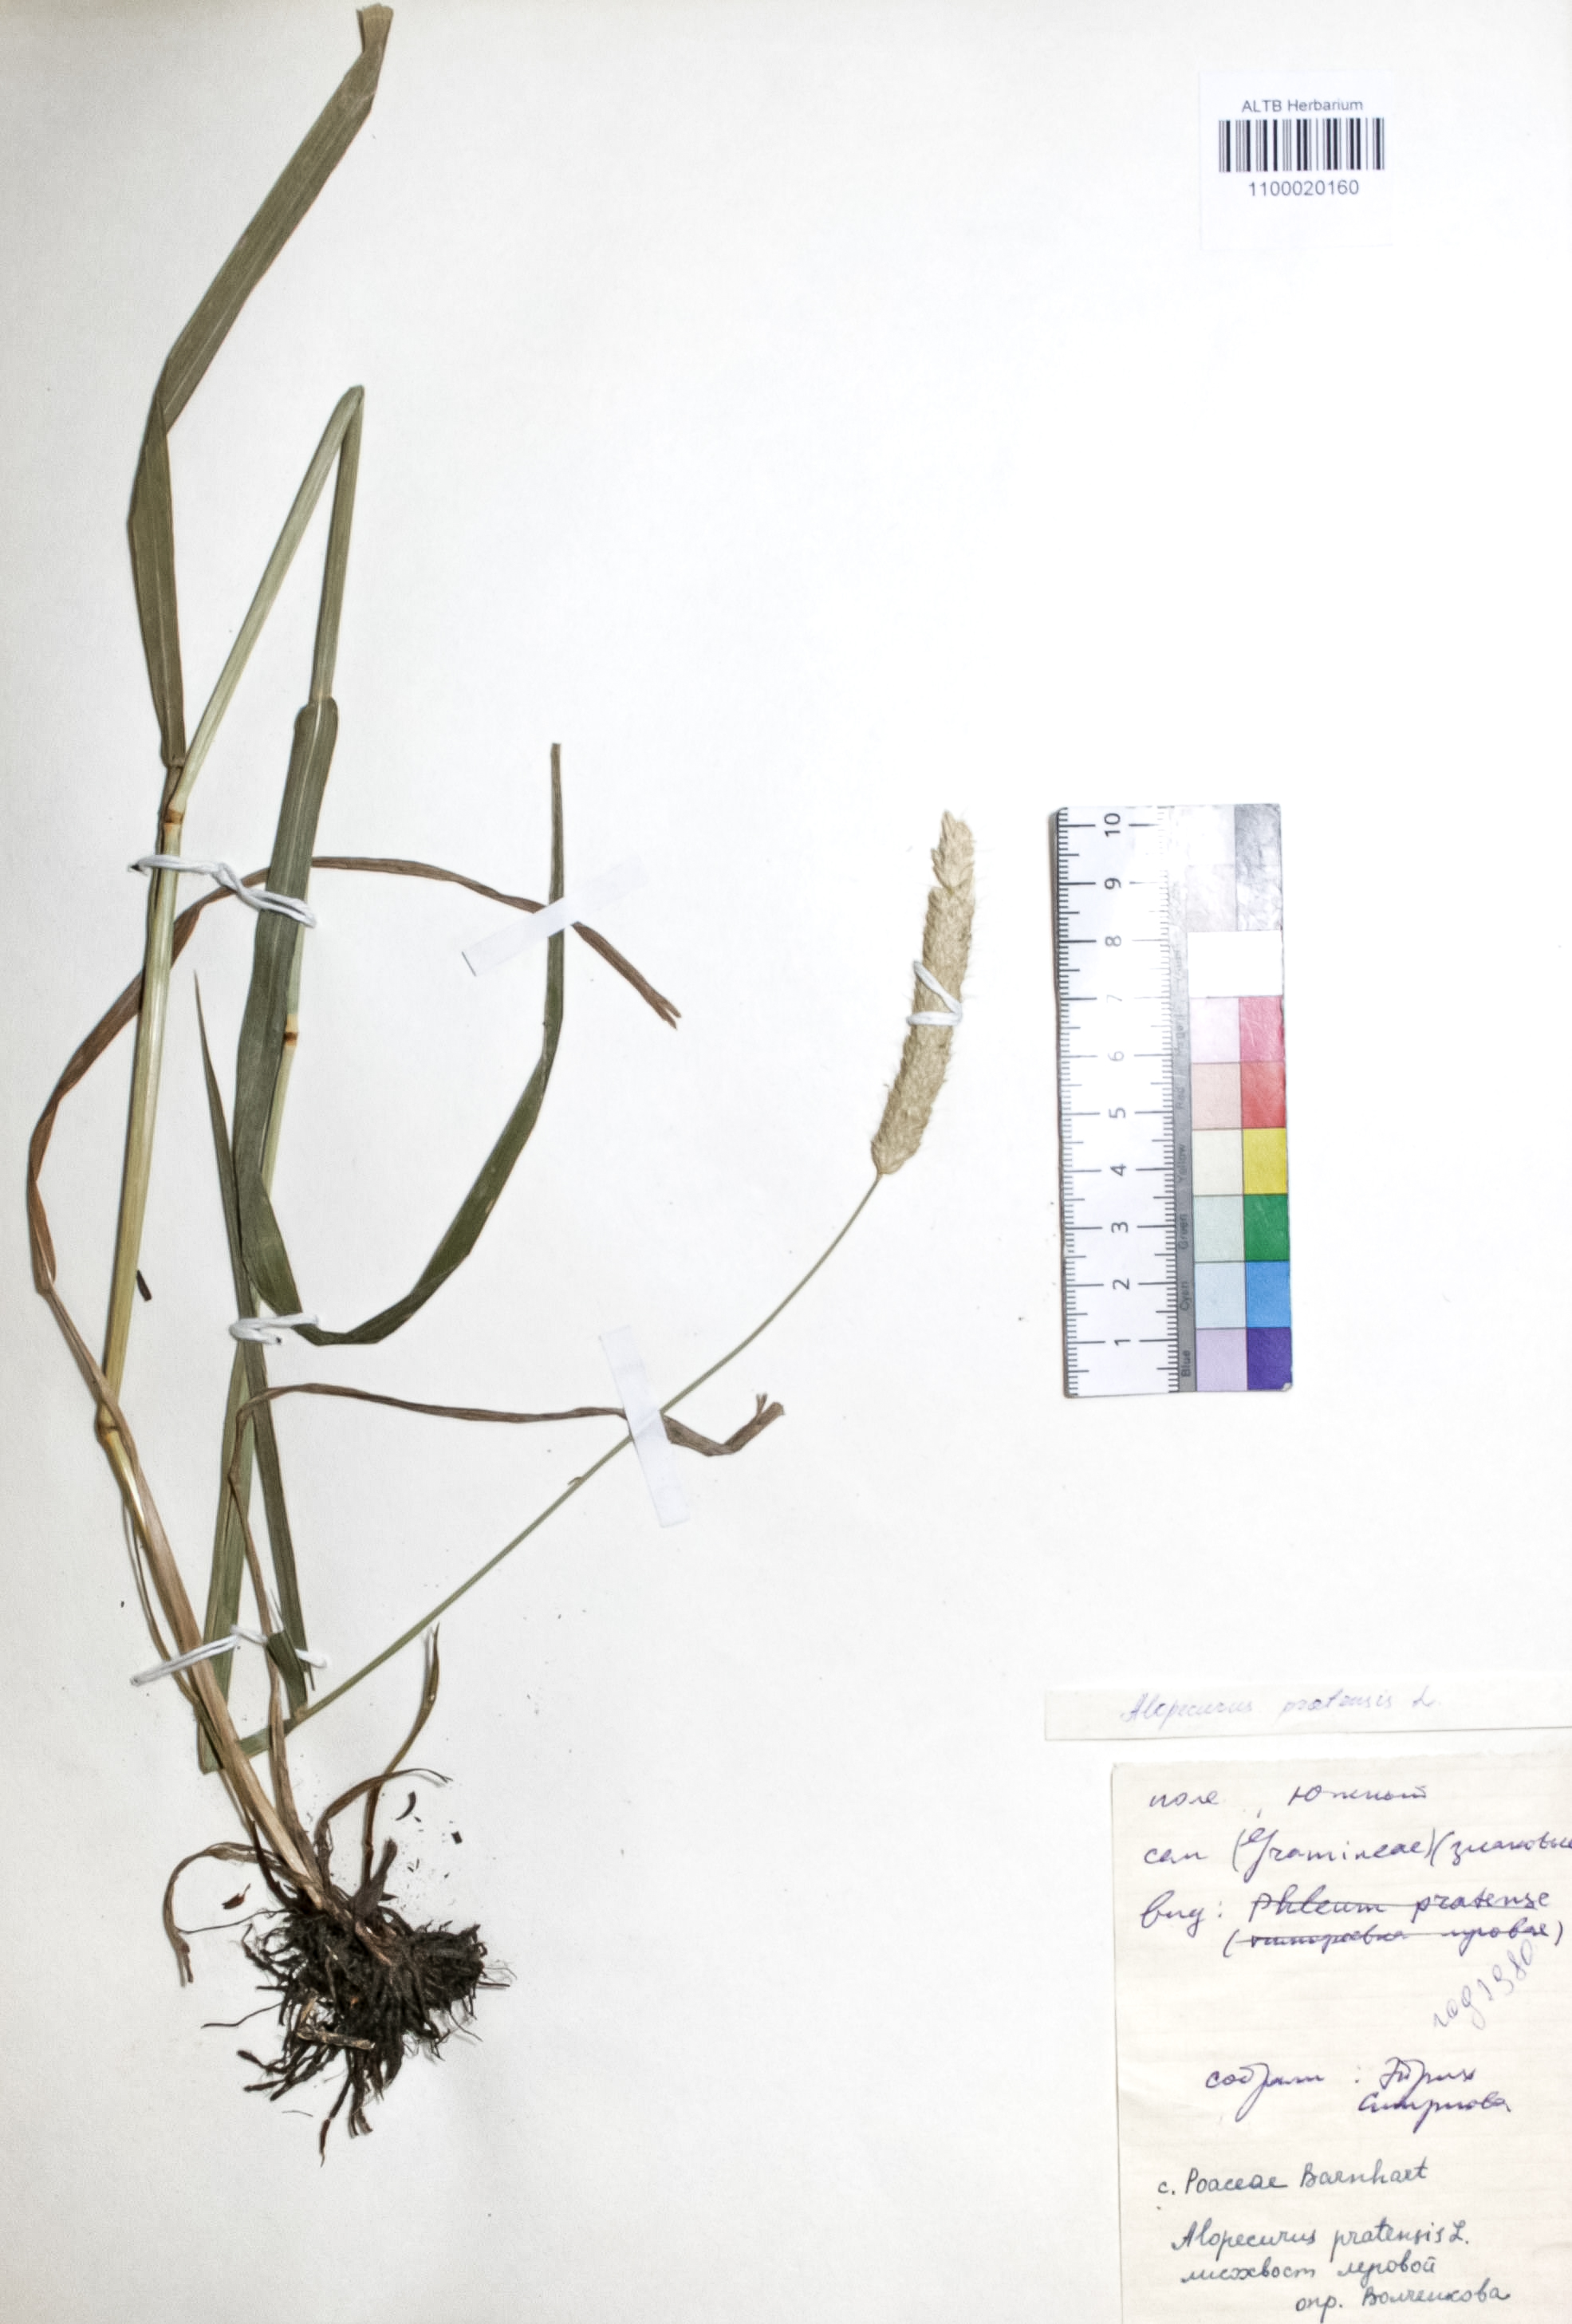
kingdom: Plantae
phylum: Tracheophyta
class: Liliopsida
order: Poales
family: Poaceae
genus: Alopecurus
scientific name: Alopecurus pratensis
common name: Meadow foxtail
